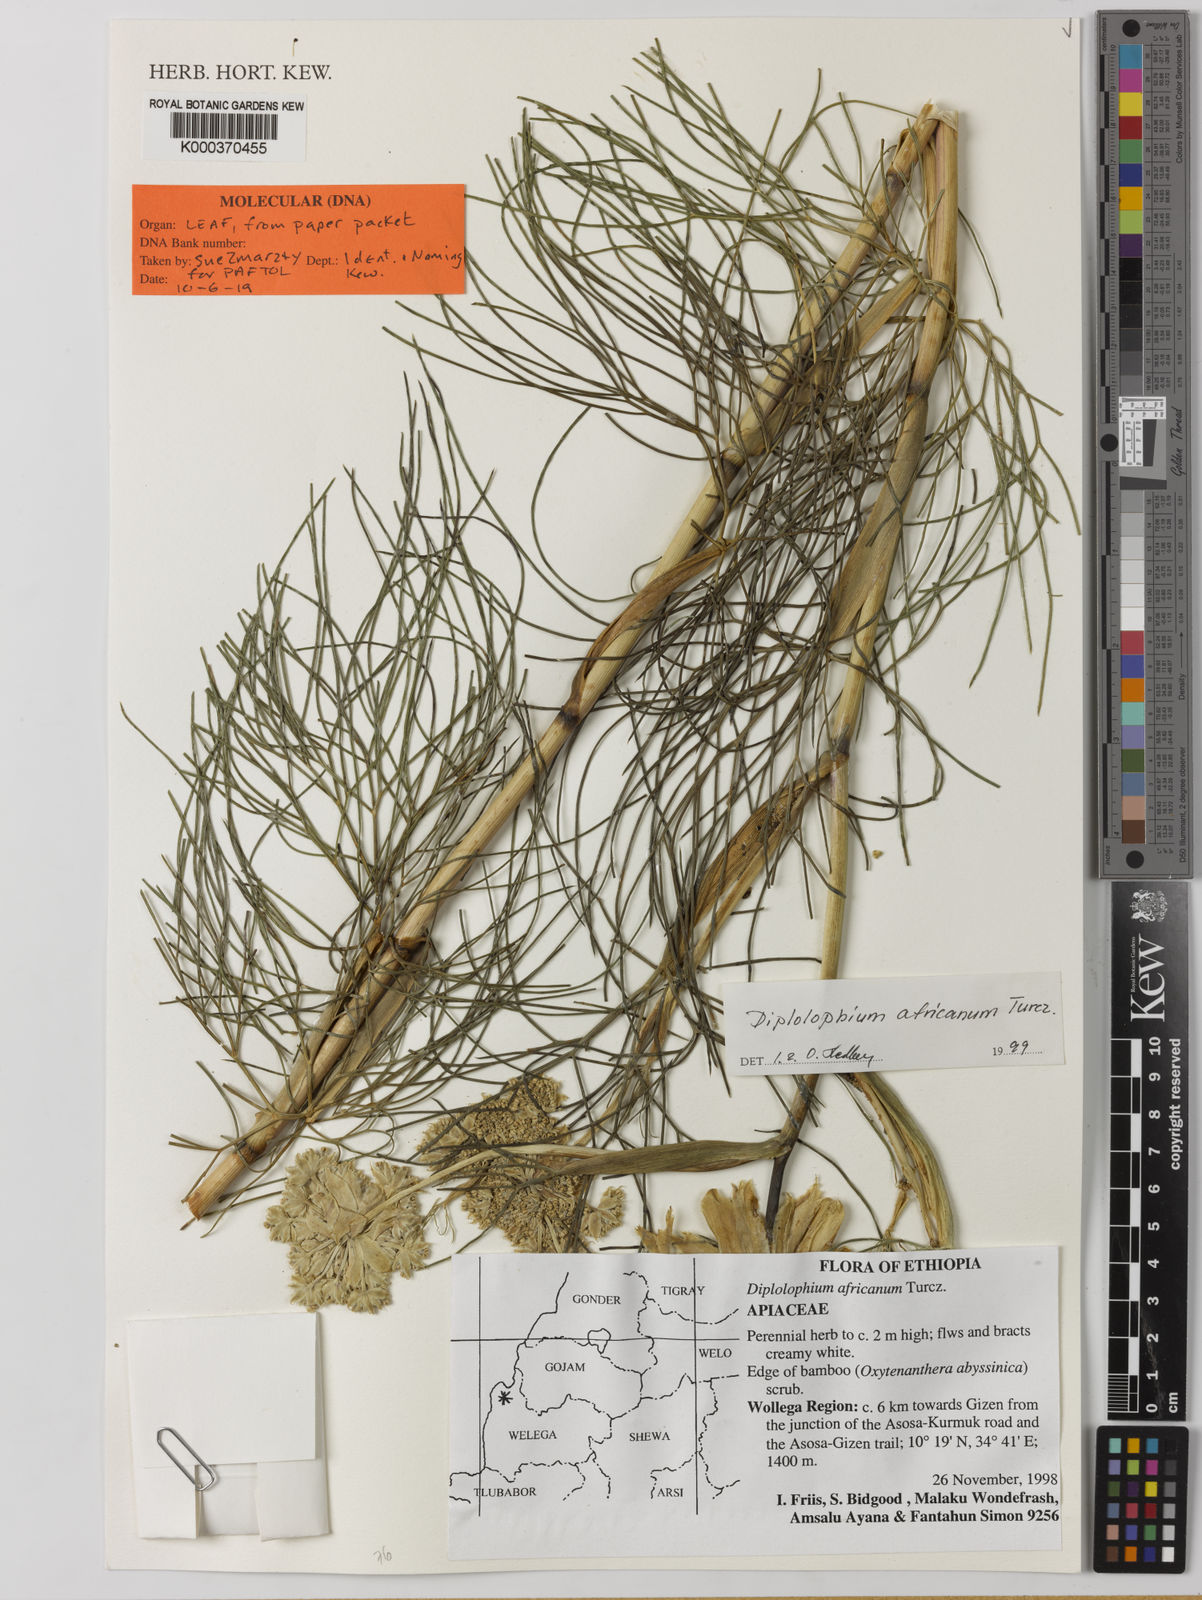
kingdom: Plantae
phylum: Tracheophyta
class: Magnoliopsida
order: Apiales
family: Apiaceae
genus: Diplolophium
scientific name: Diplolophium africanum
